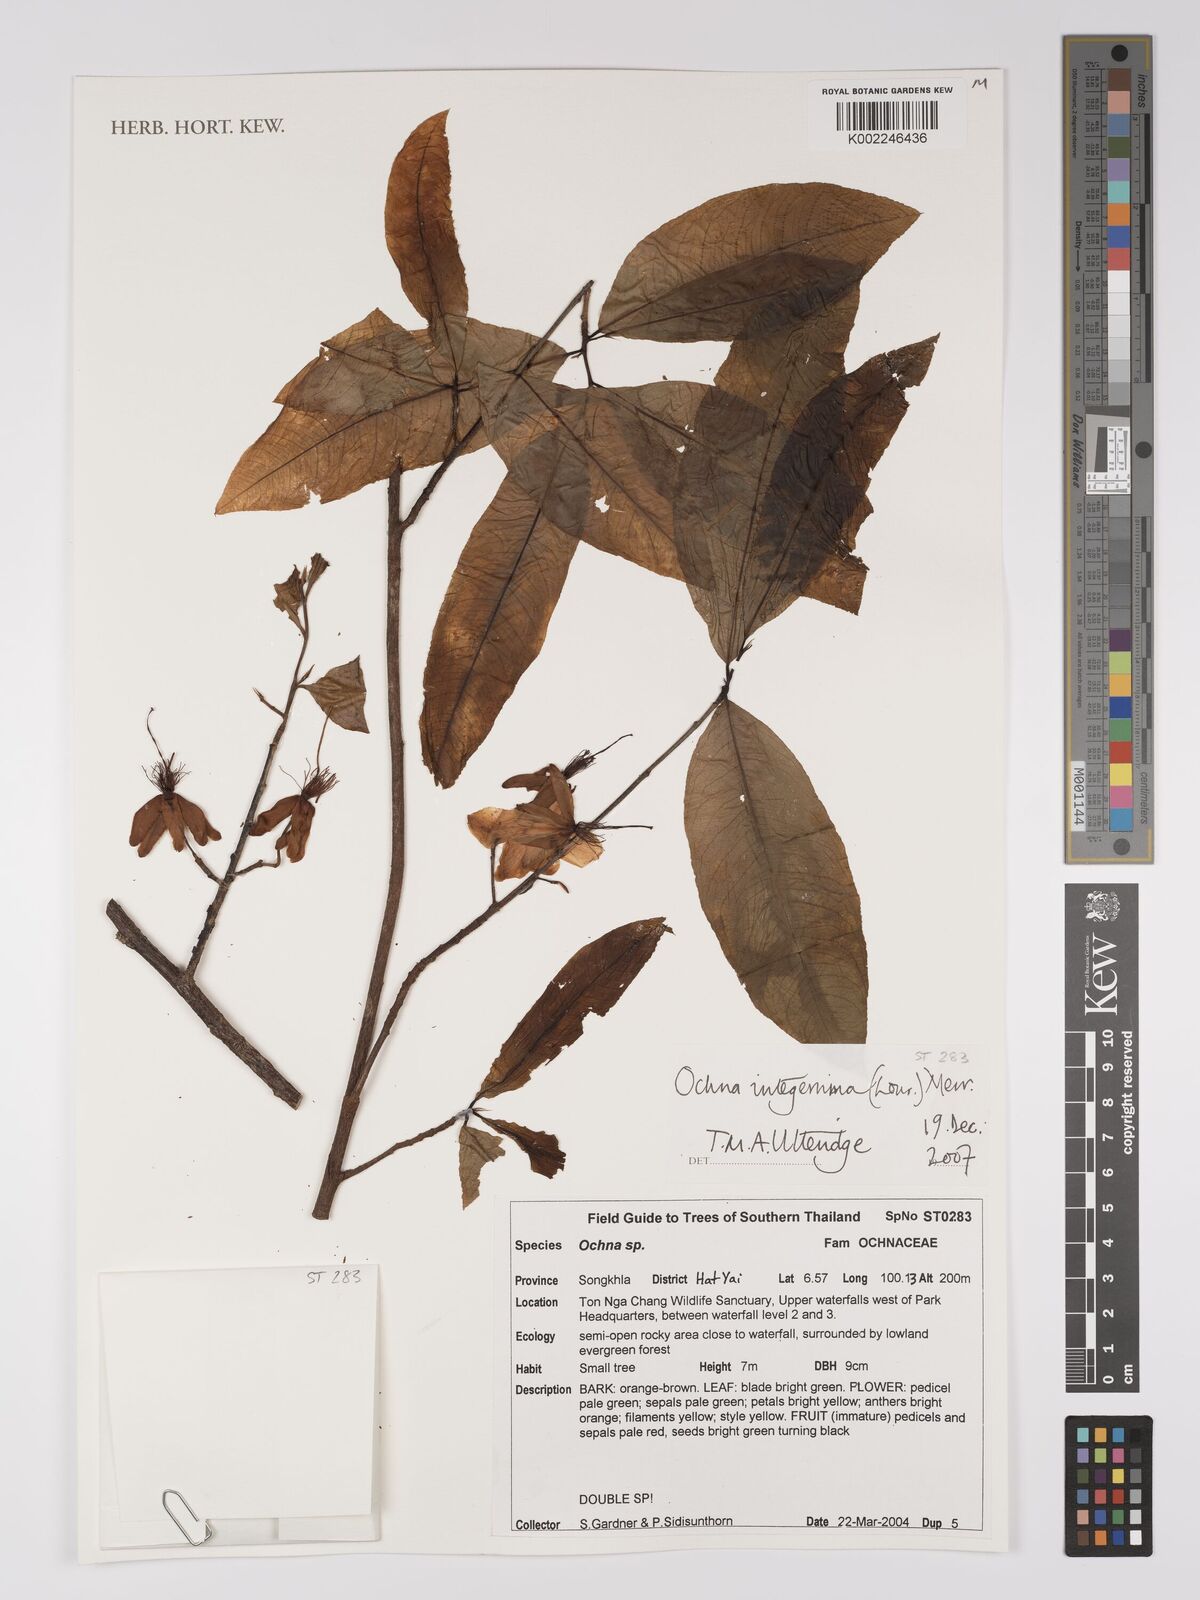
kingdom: Plantae
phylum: Tracheophyta
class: Magnoliopsida
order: Malpighiales
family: Ochnaceae
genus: Ochna
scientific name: Ochna
